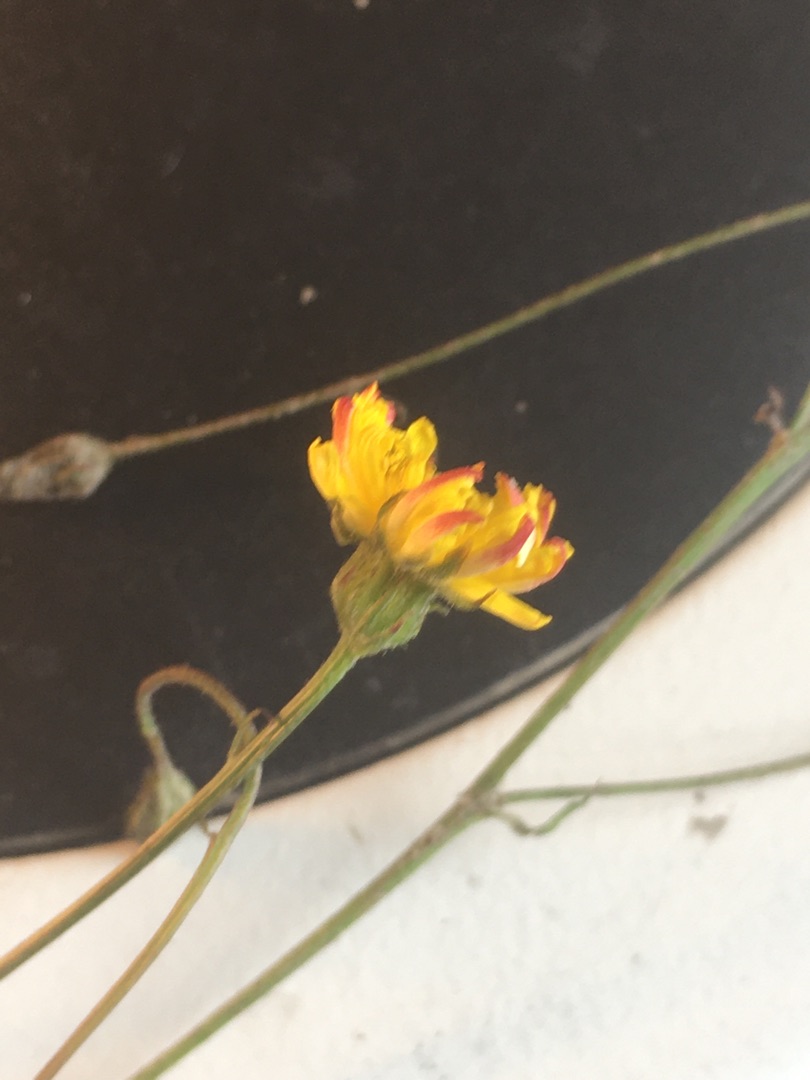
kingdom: Plantae
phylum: Tracheophyta
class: Magnoliopsida
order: Asterales
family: Asteraceae
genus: Crepis
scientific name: Crepis capillaris
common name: Grøn høgeskæg
